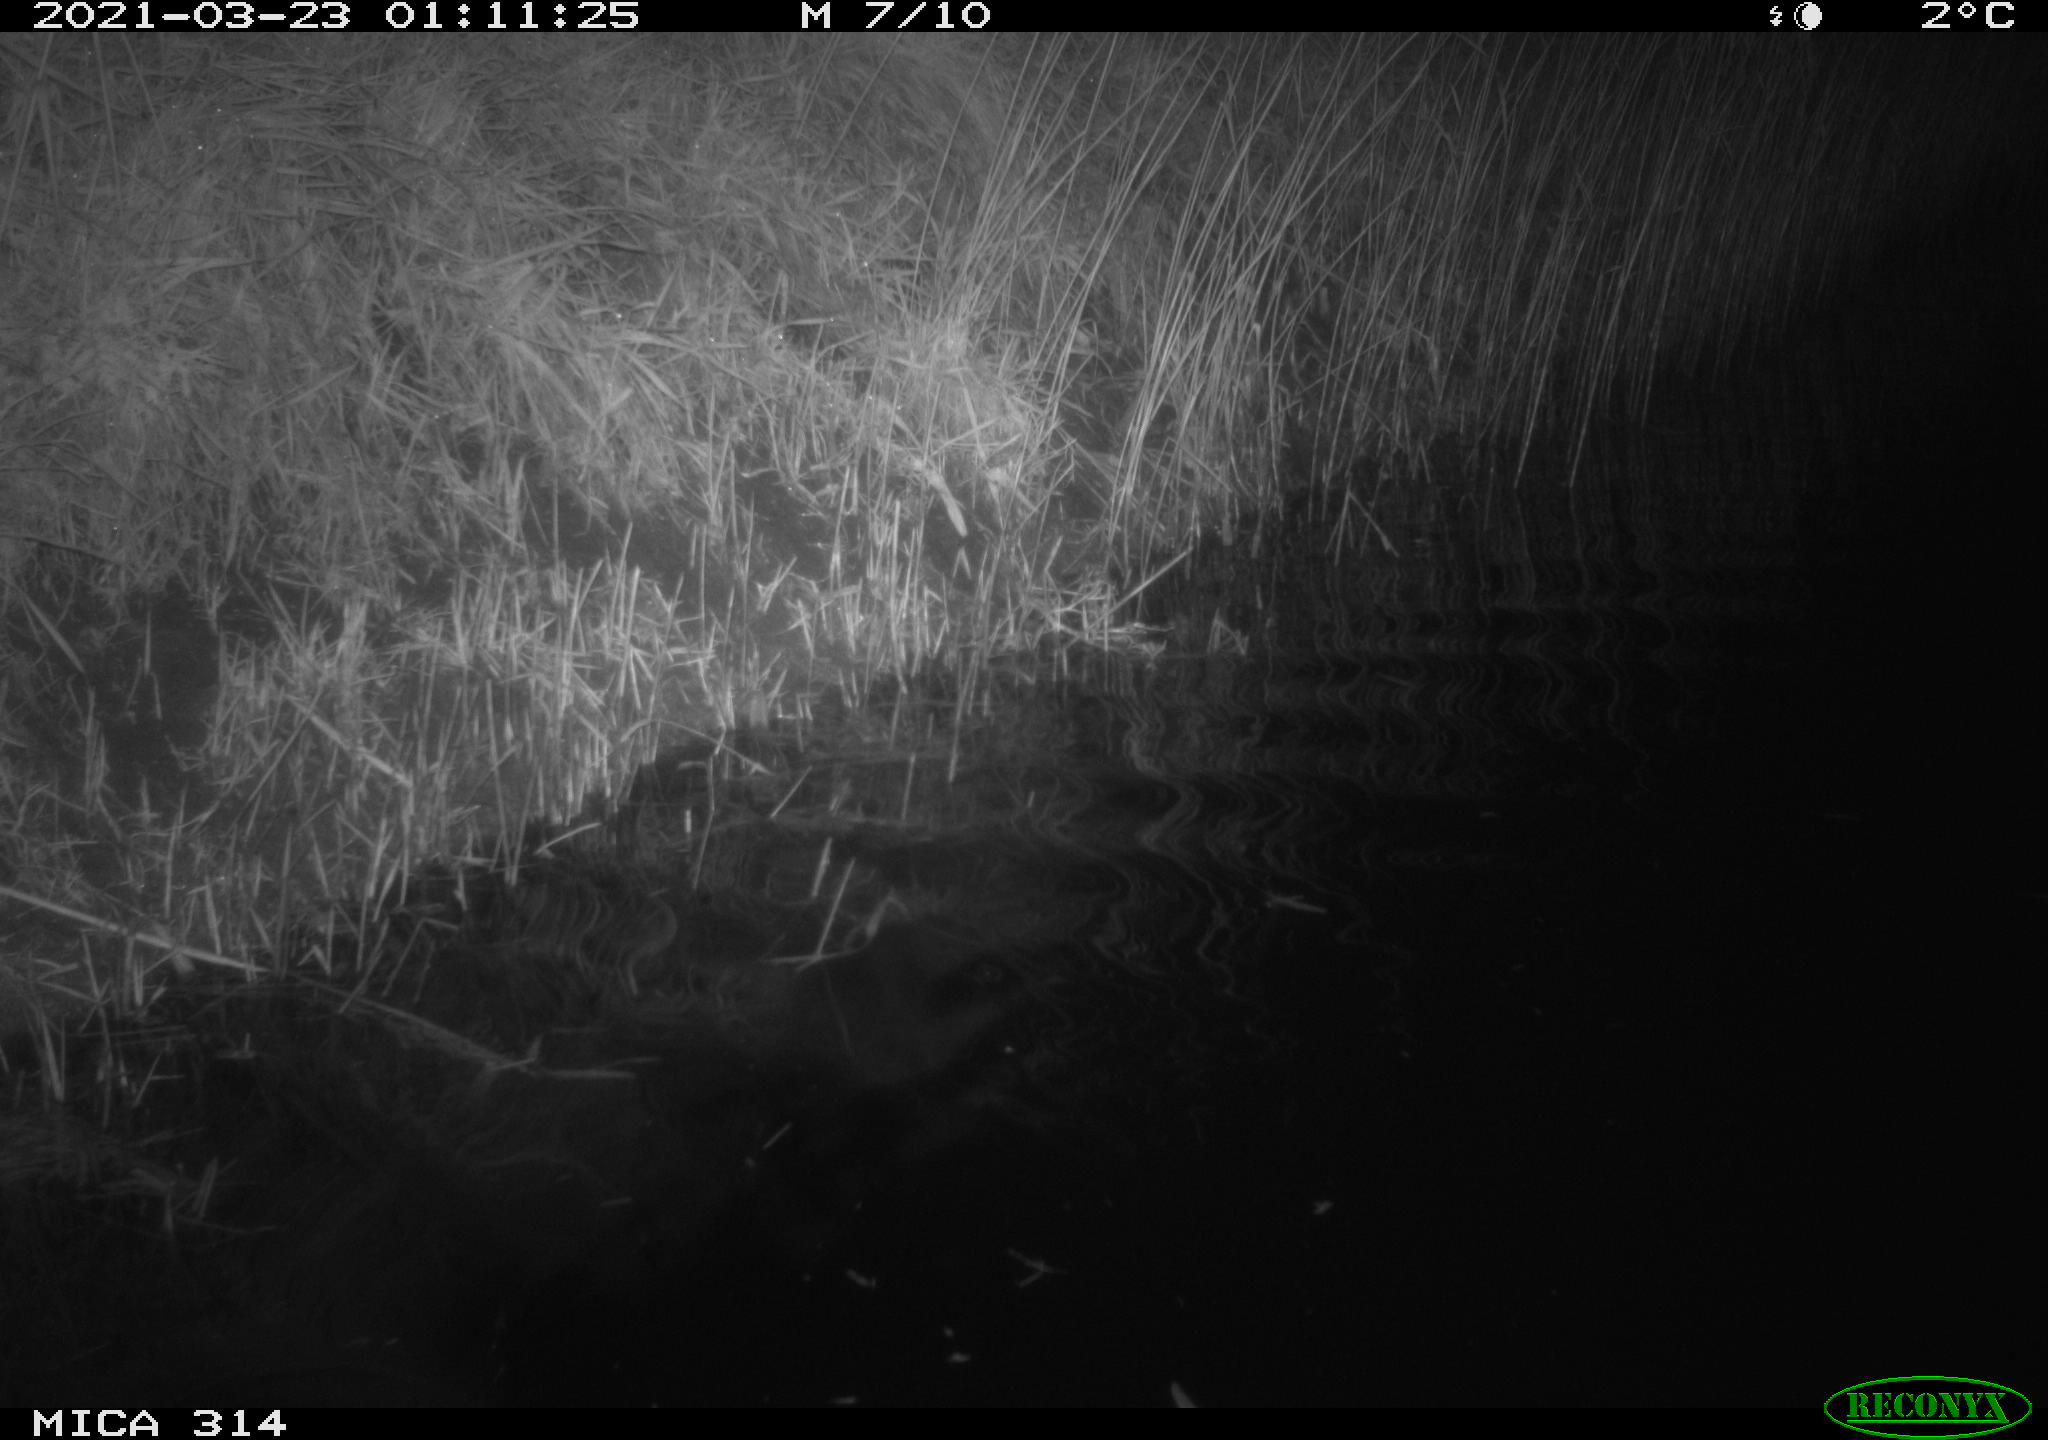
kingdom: Animalia
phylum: Chordata
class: Mammalia
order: Rodentia
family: Cricetidae
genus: Ondatra
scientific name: Ondatra zibethicus
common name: Muskrat
